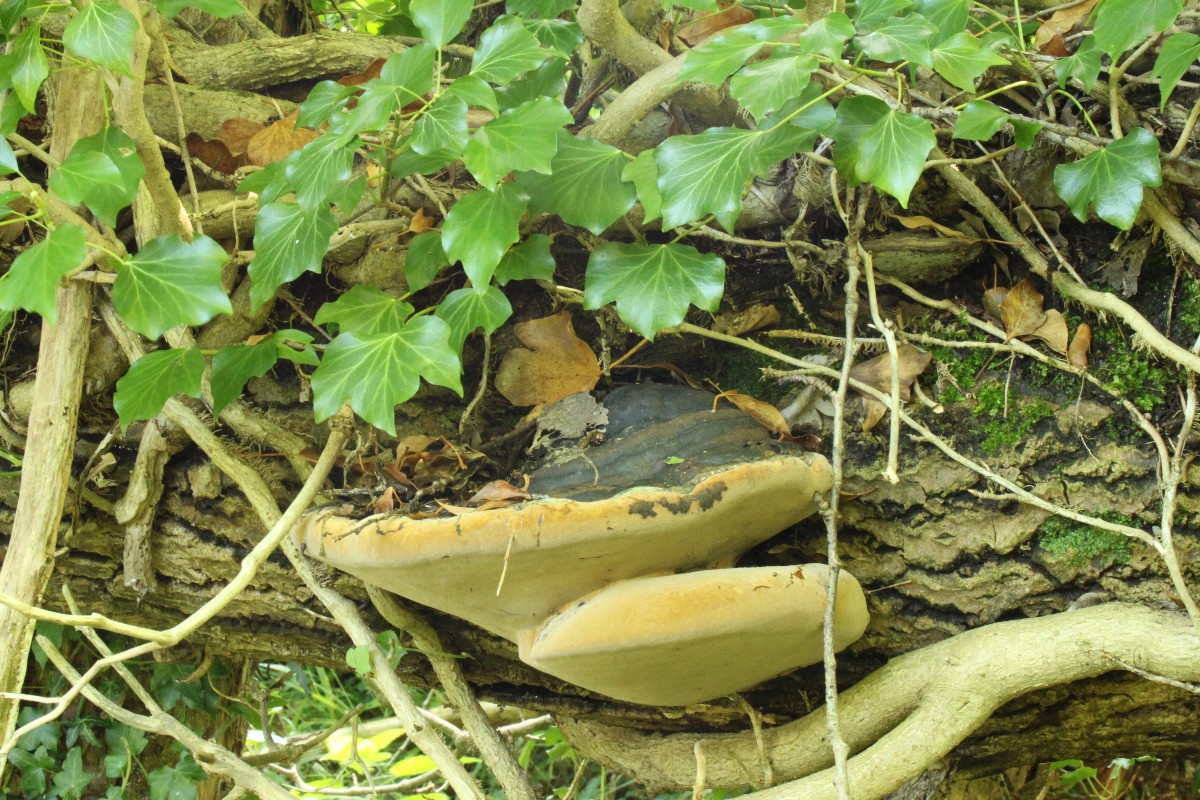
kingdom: Fungi
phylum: Basidiomycota
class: Agaricomycetes
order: Hymenochaetales
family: Hymenochaetaceae
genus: Phellinus
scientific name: Phellinus populicola
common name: poppel-ildporesvamp
